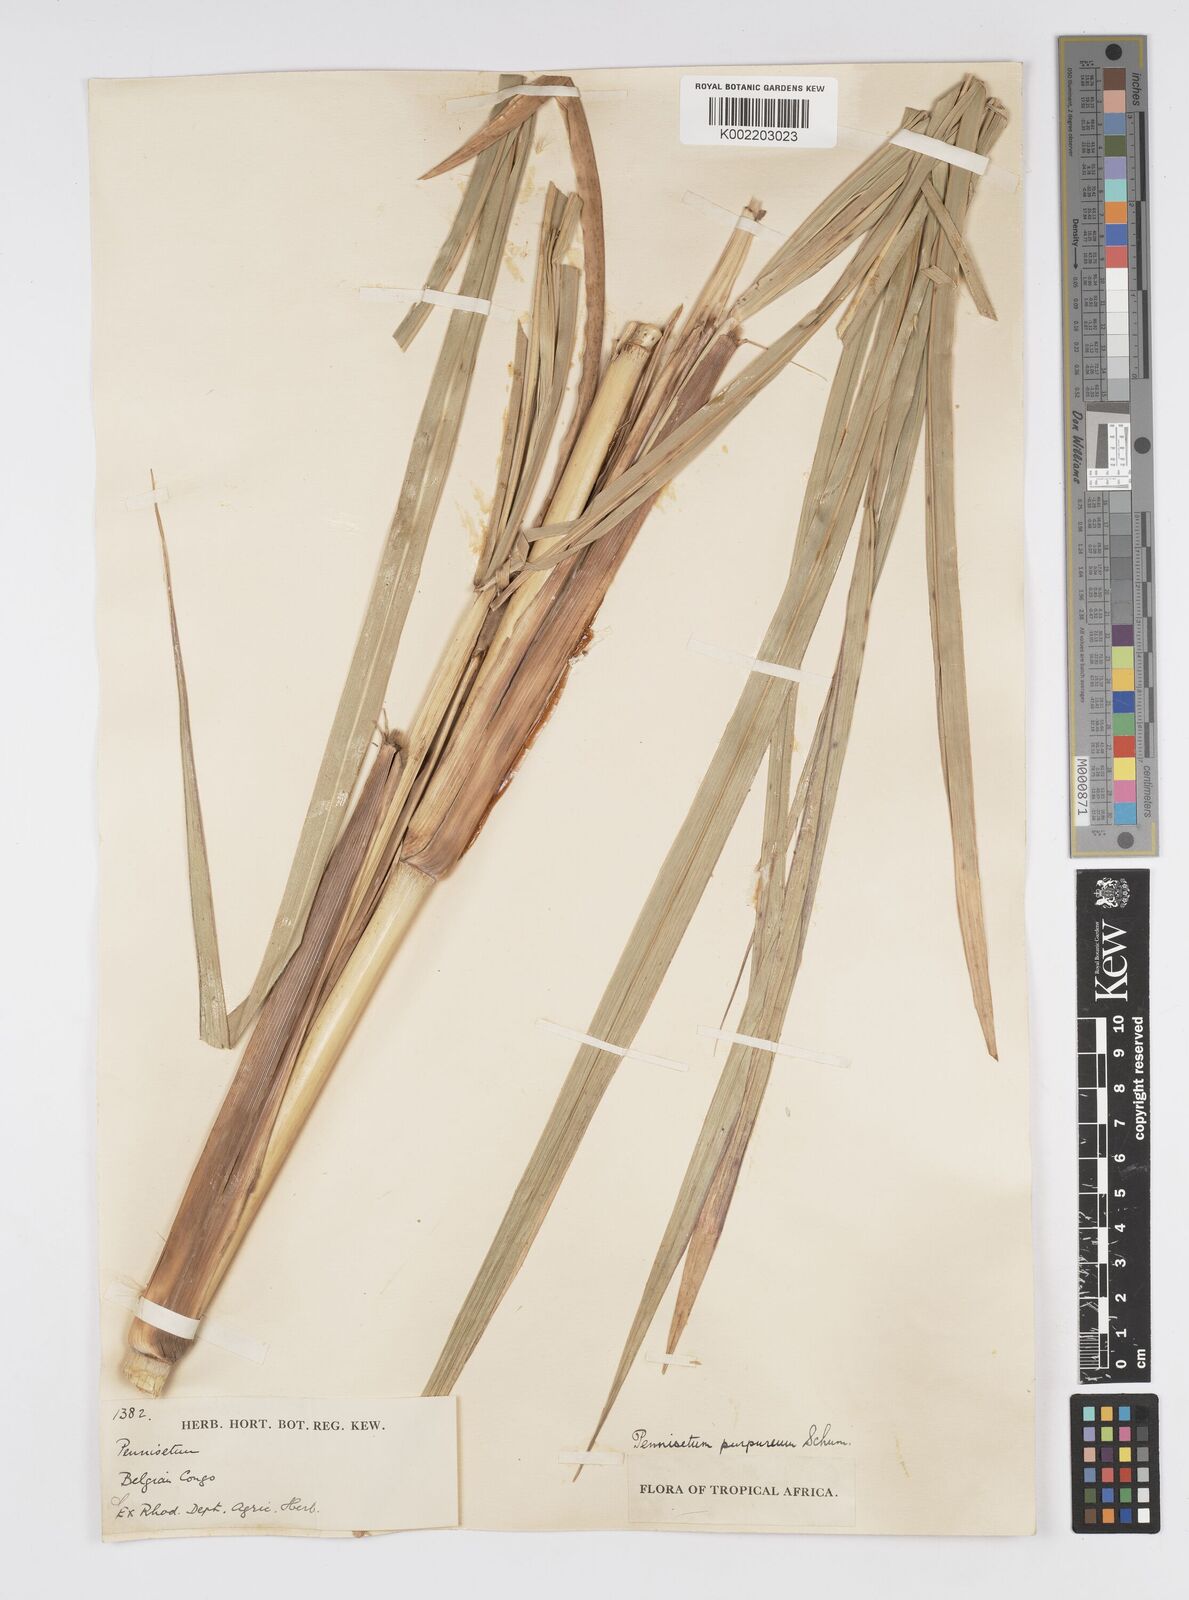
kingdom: Plantae
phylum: Tracheophyta
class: Liliopsida
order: Poales
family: Poaceae
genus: Cenchrus
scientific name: Cenchrus purpureus
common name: Elephant grass
